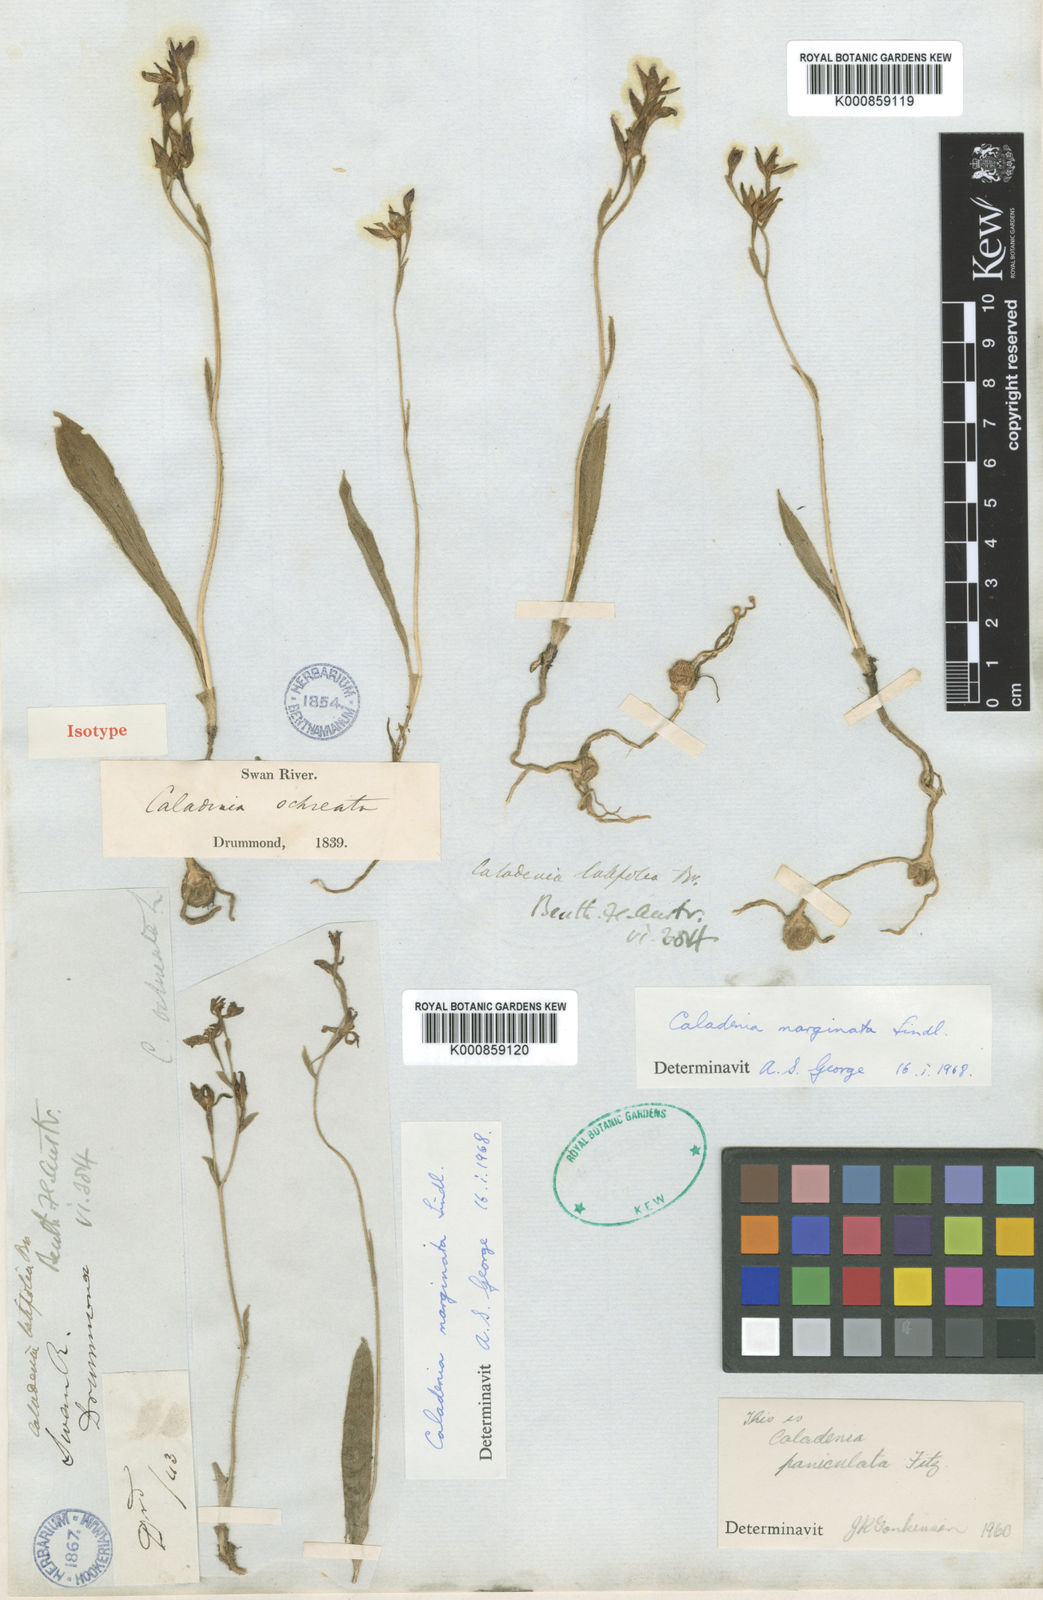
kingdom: Plantae
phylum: Tracheophyta
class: Liliopsida
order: Asparagales
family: Orchidaceae
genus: Caladenia
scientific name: Caladenia marginata
